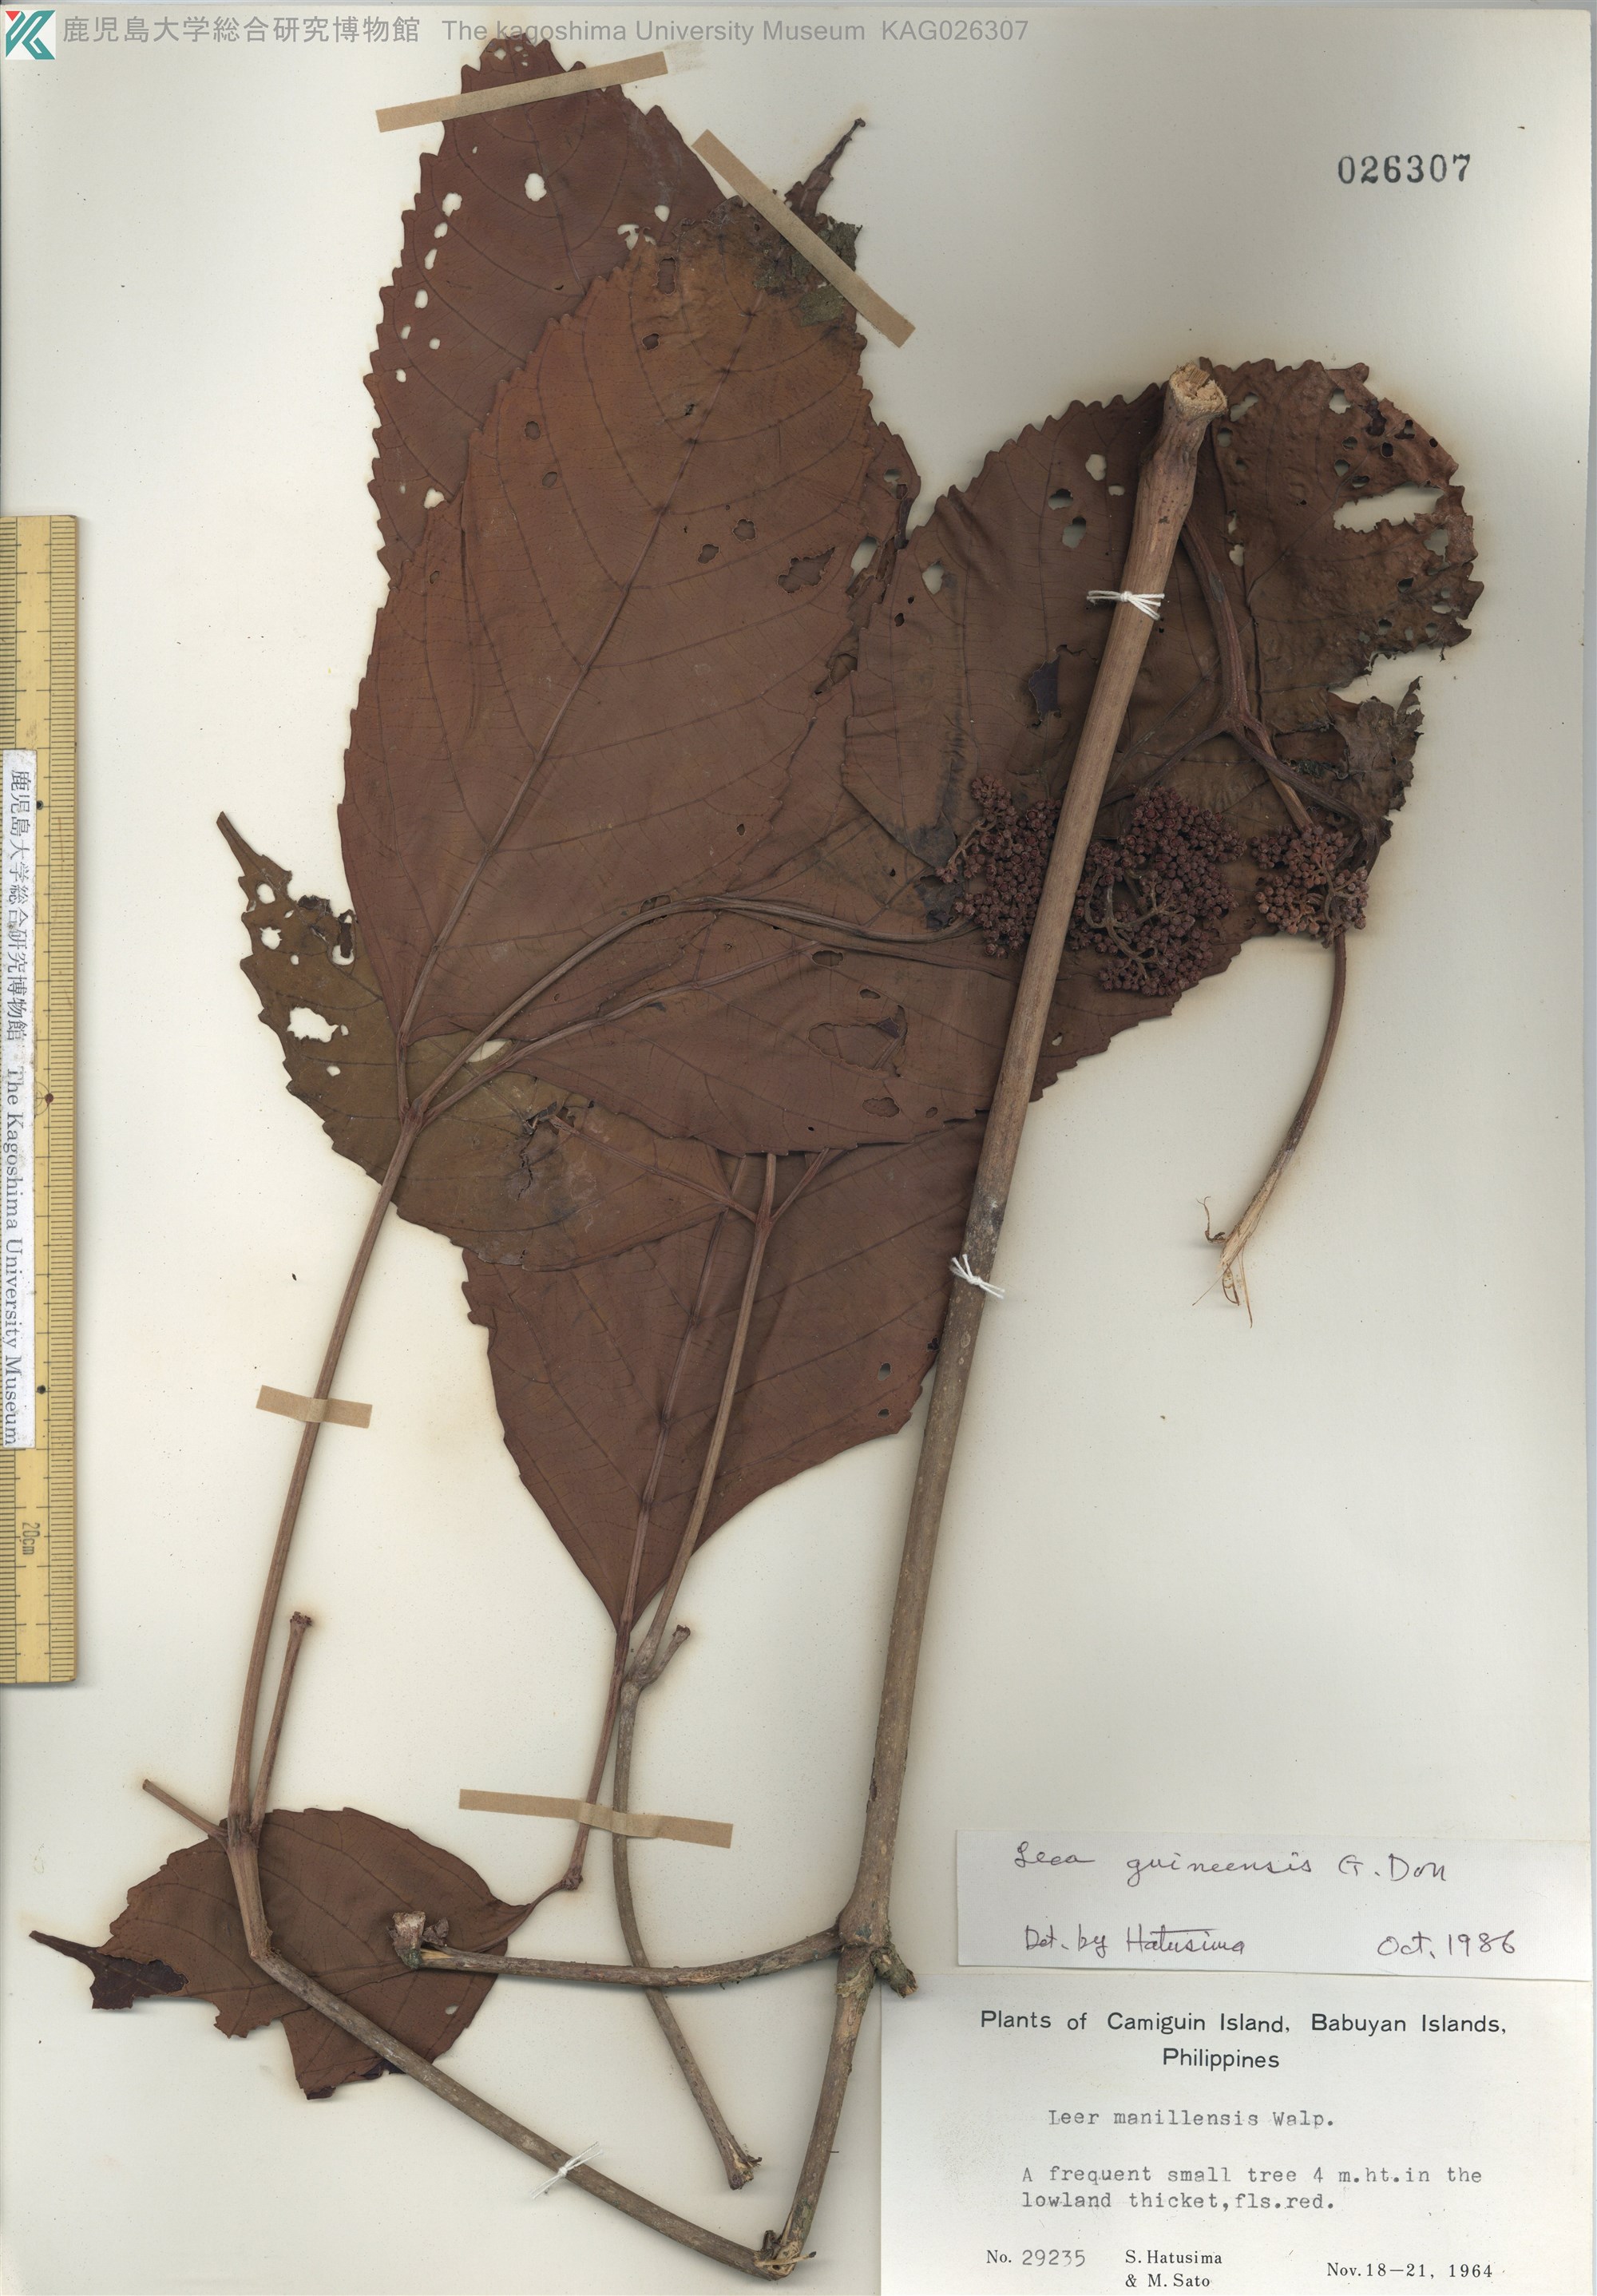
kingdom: Plantae
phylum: Tracheophyta
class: Magnoliopsida
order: Vitales
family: Vitaceae
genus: Leea
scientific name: Leea guineensis
